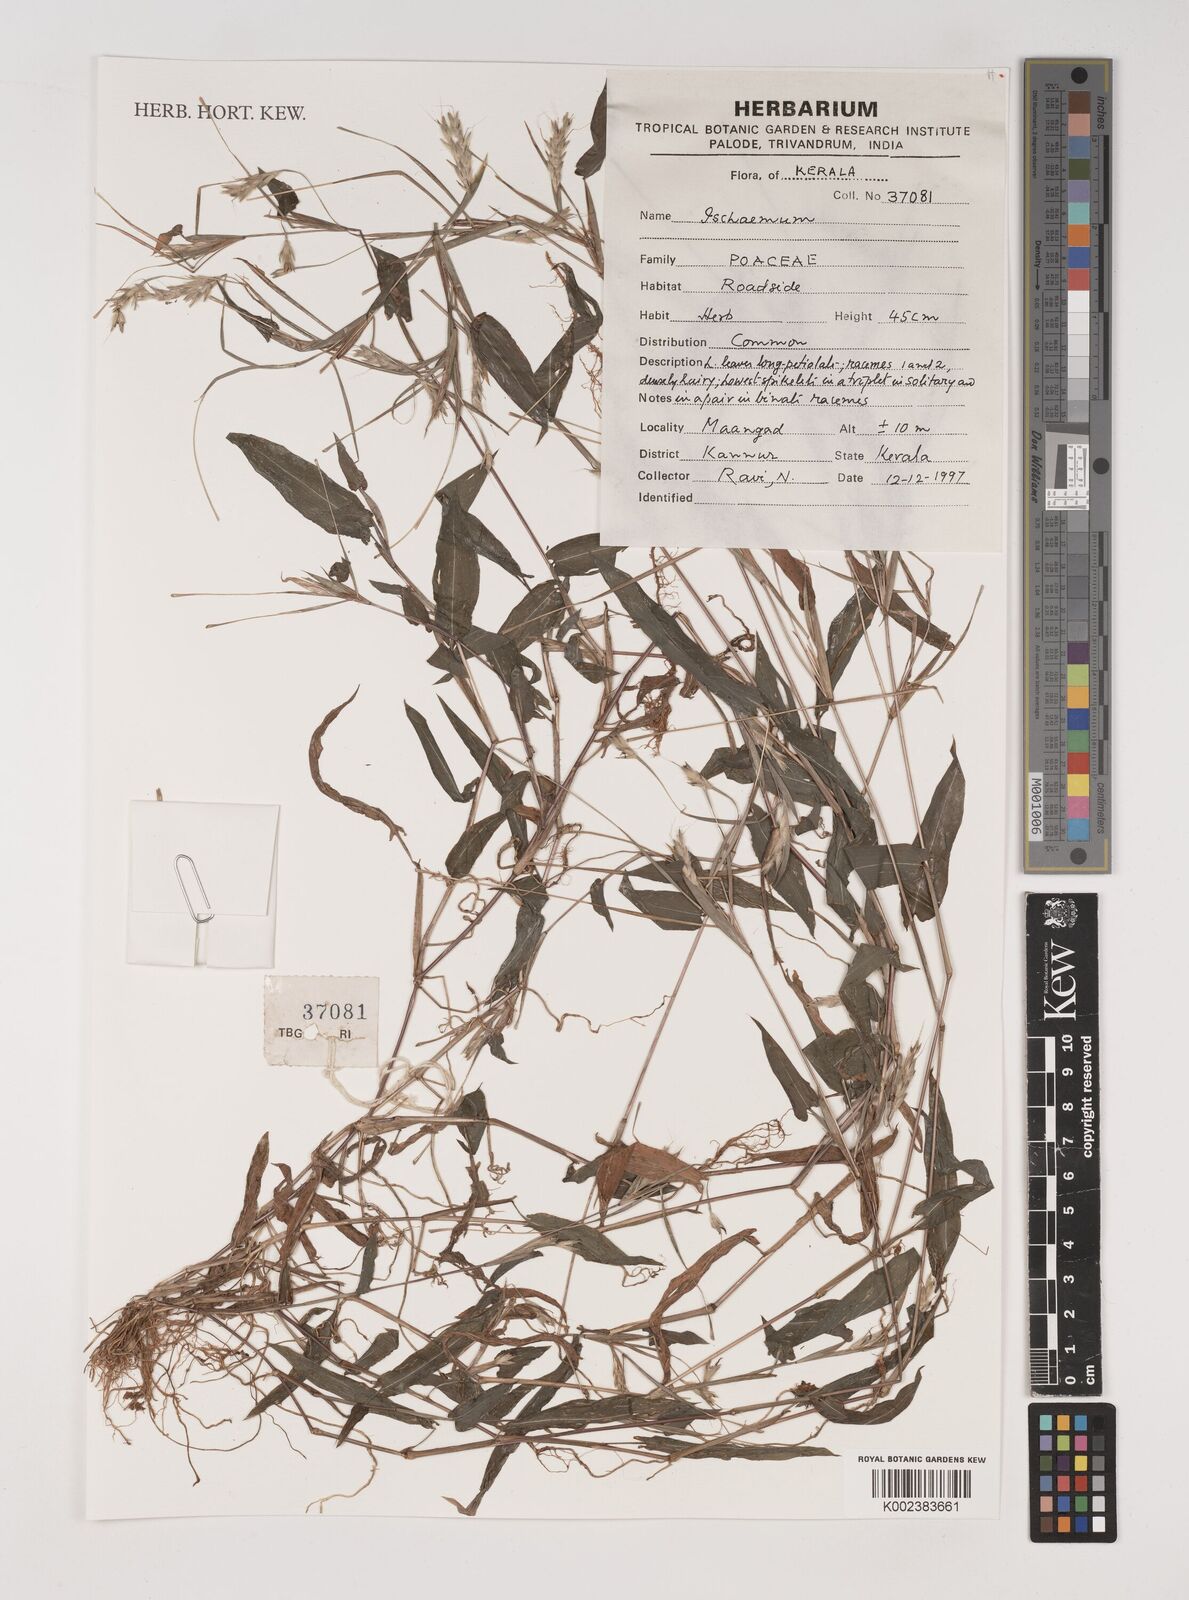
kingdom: Plantae
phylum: Tracheophyta
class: Liliopsida
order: Poales
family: Poaceae
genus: Ischaemum
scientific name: Ischaemum
